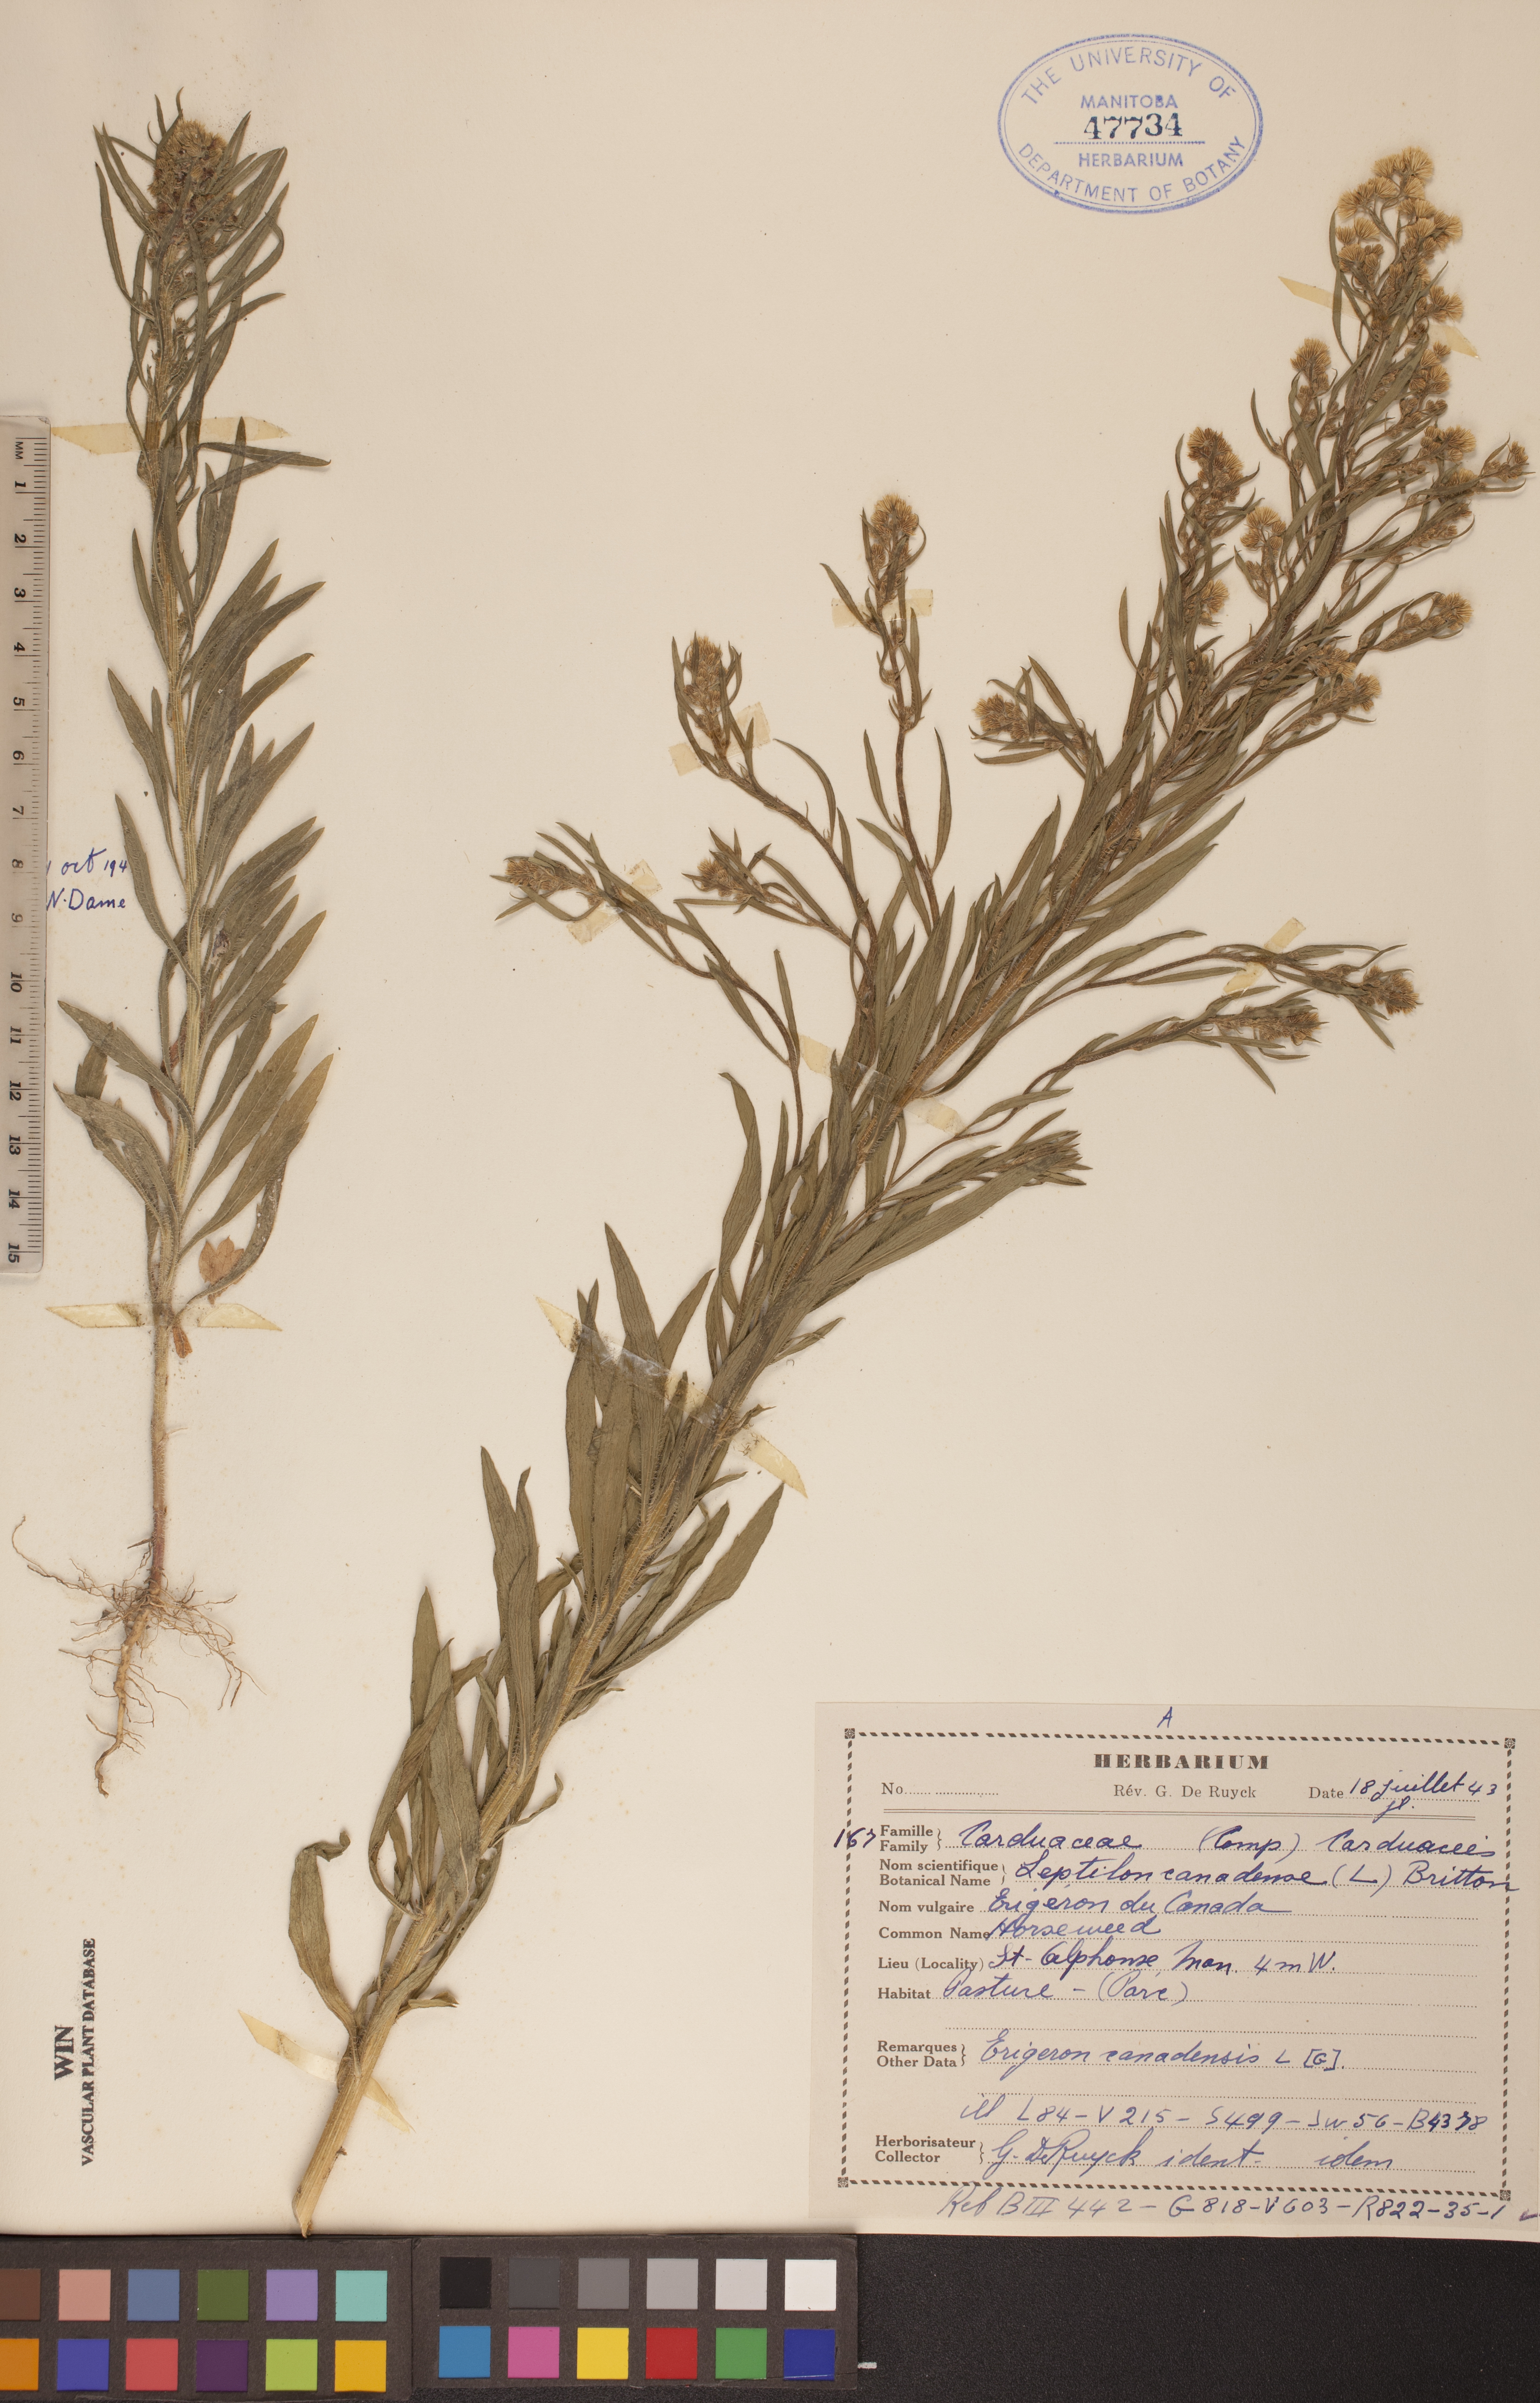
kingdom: Plantae
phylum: Tracheophyta
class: Magnoliopsida
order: Asterales
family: Asteraceae
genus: Erigeron
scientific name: Erigeron canadensis
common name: Canadian fleabane
